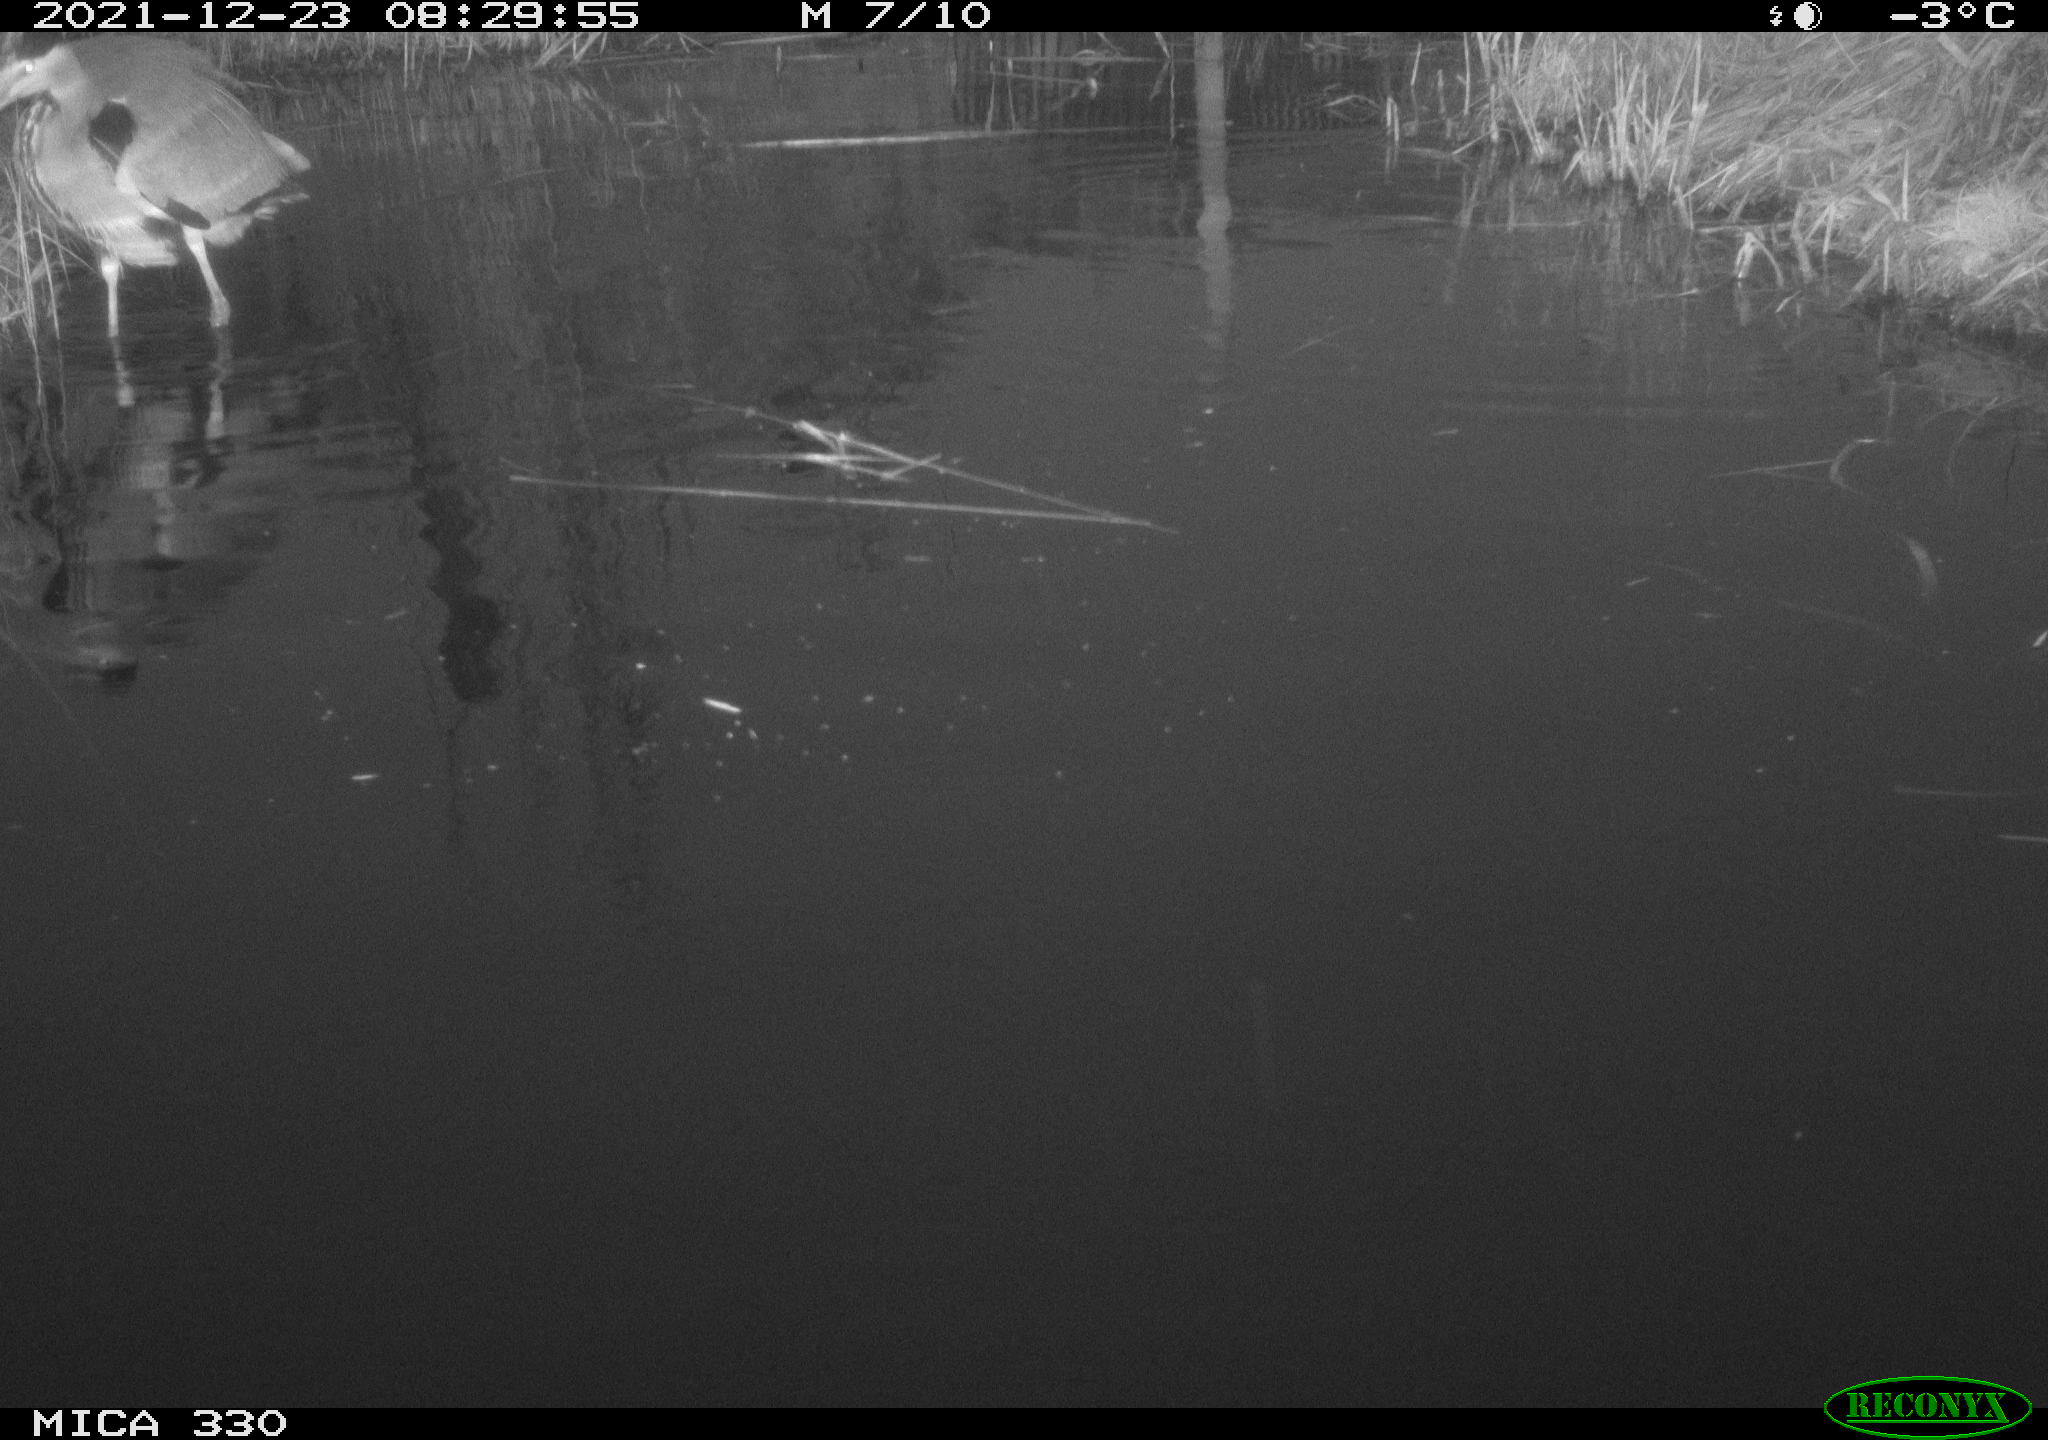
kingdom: Animalia
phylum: Chordata
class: Aves
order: Pelecaniformes
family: Ardeidae
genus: Ardea
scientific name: Ardea cinerea
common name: Grey heron
